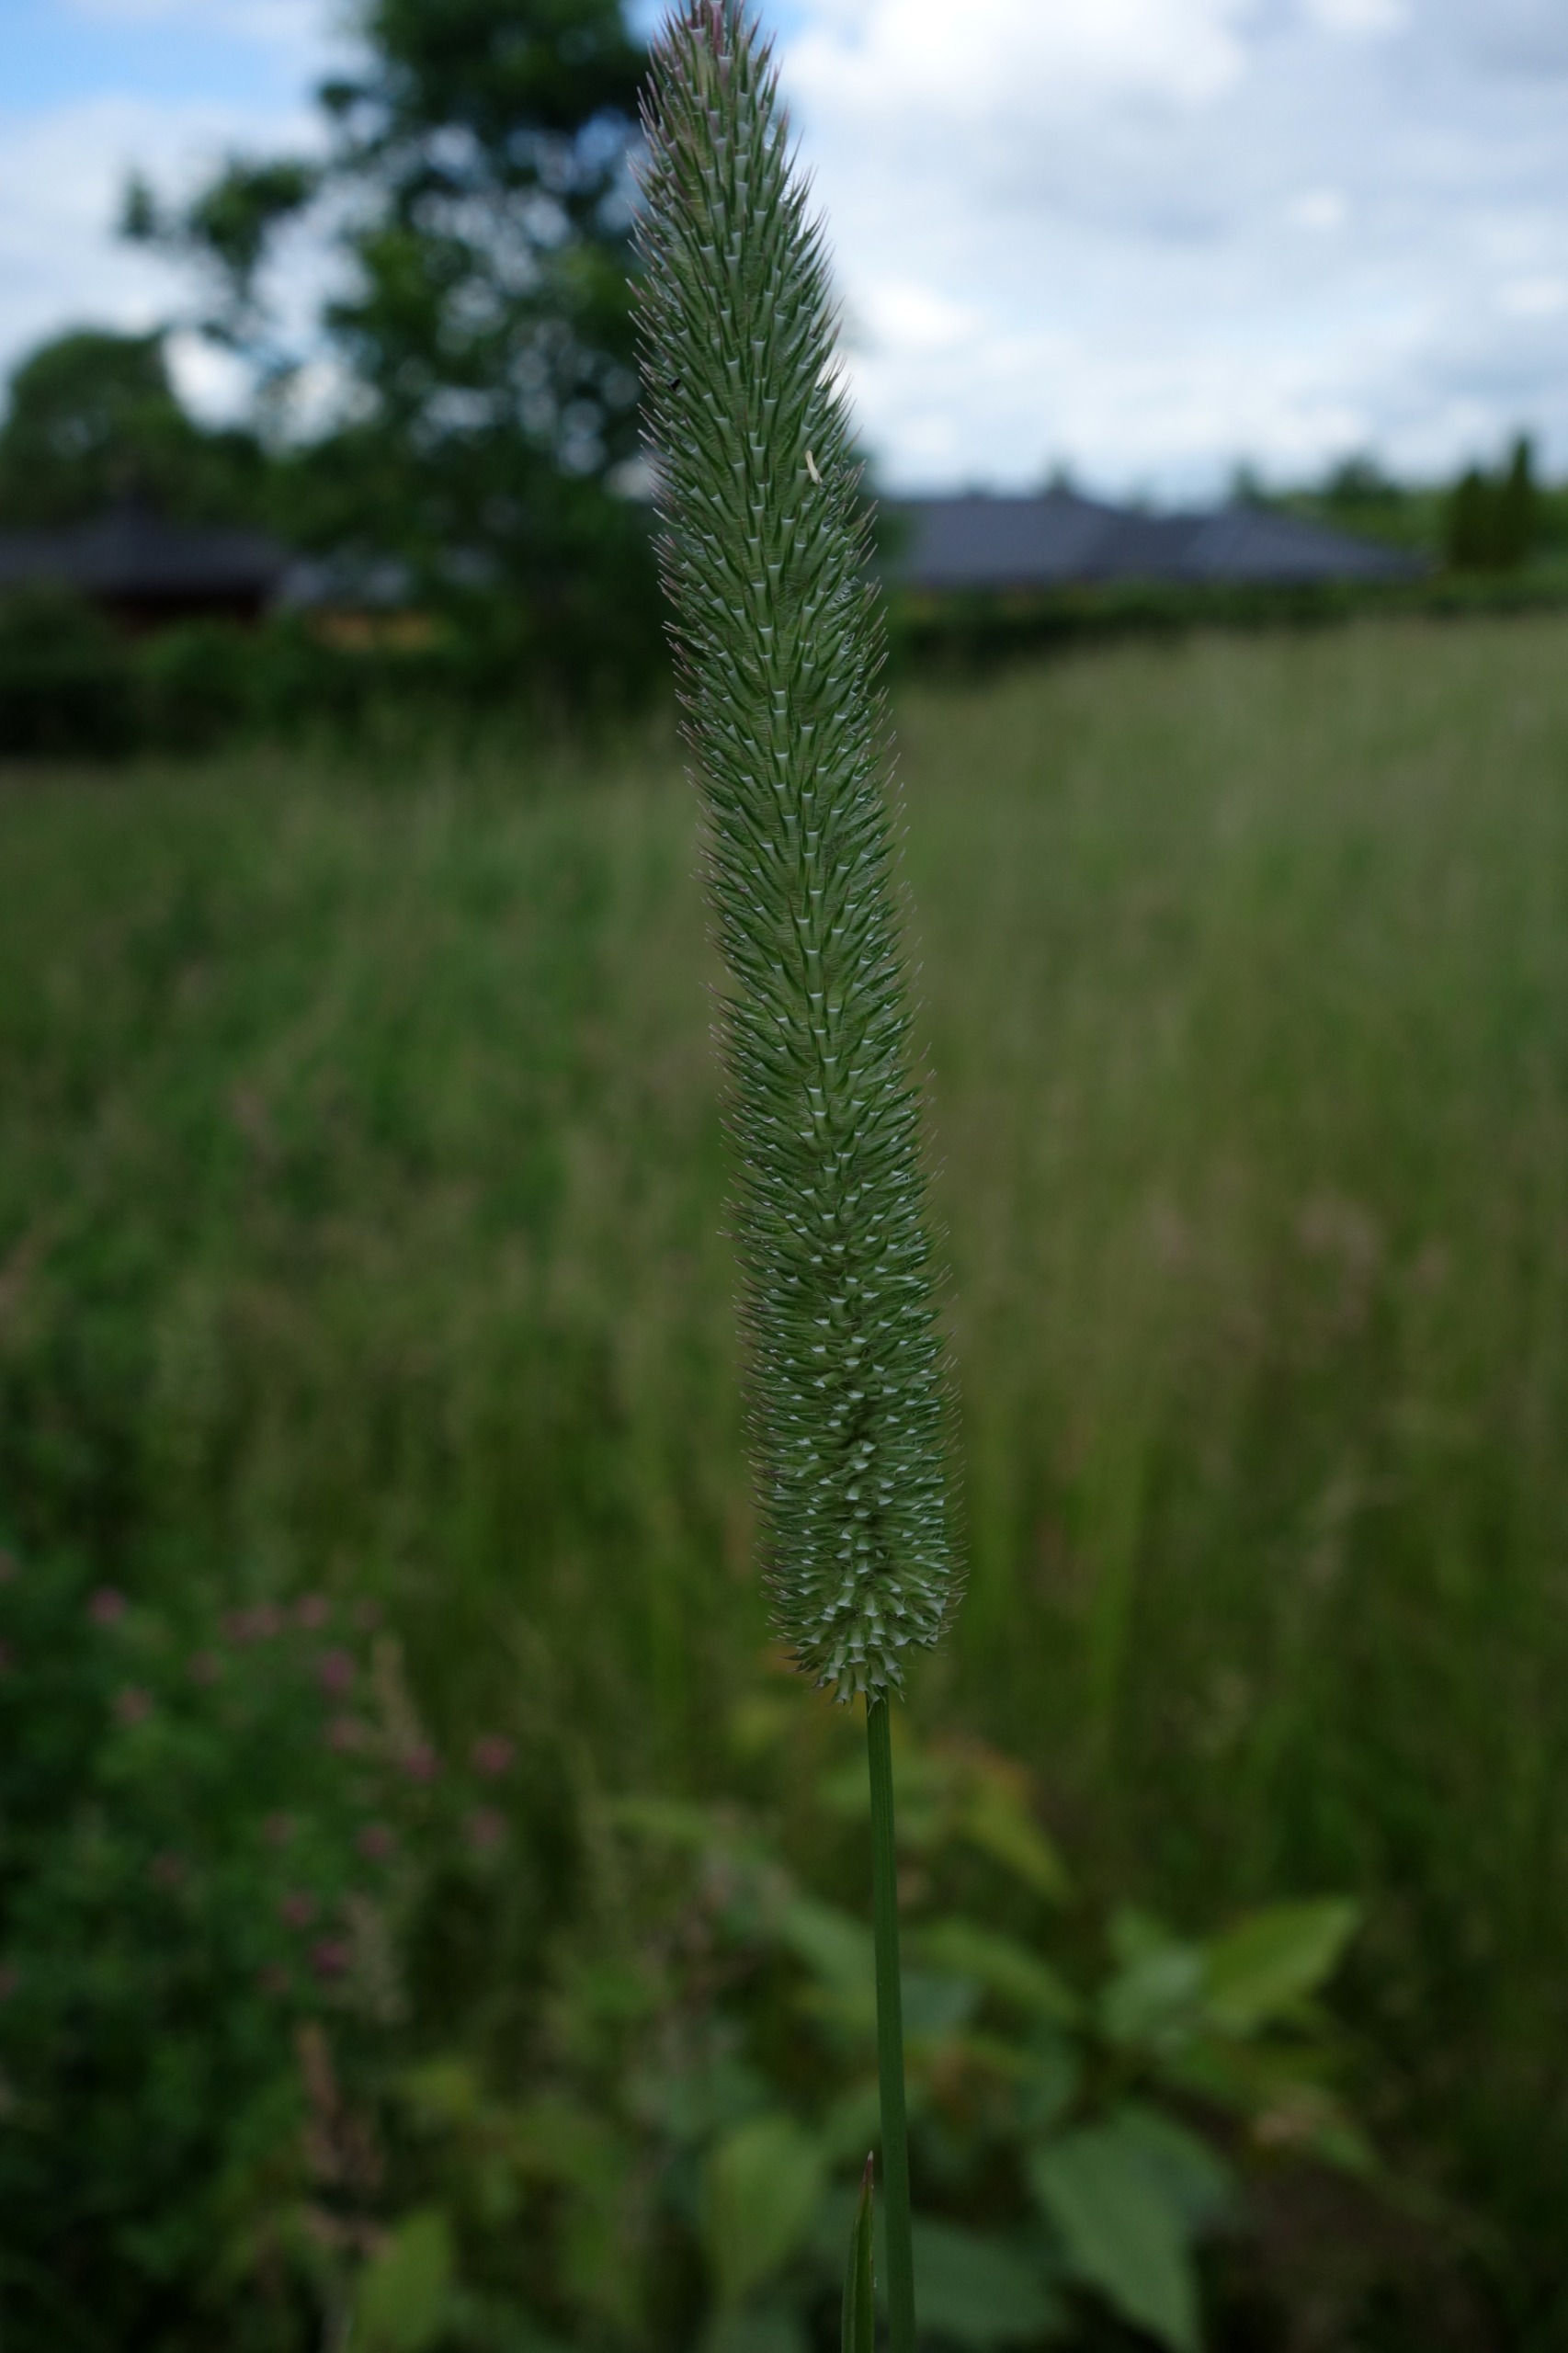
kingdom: Plantae
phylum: Tracheophyta
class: Liliopsida
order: Poales
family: Poaceae
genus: Phleum
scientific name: Phleum pratense
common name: Eng-rottehale
